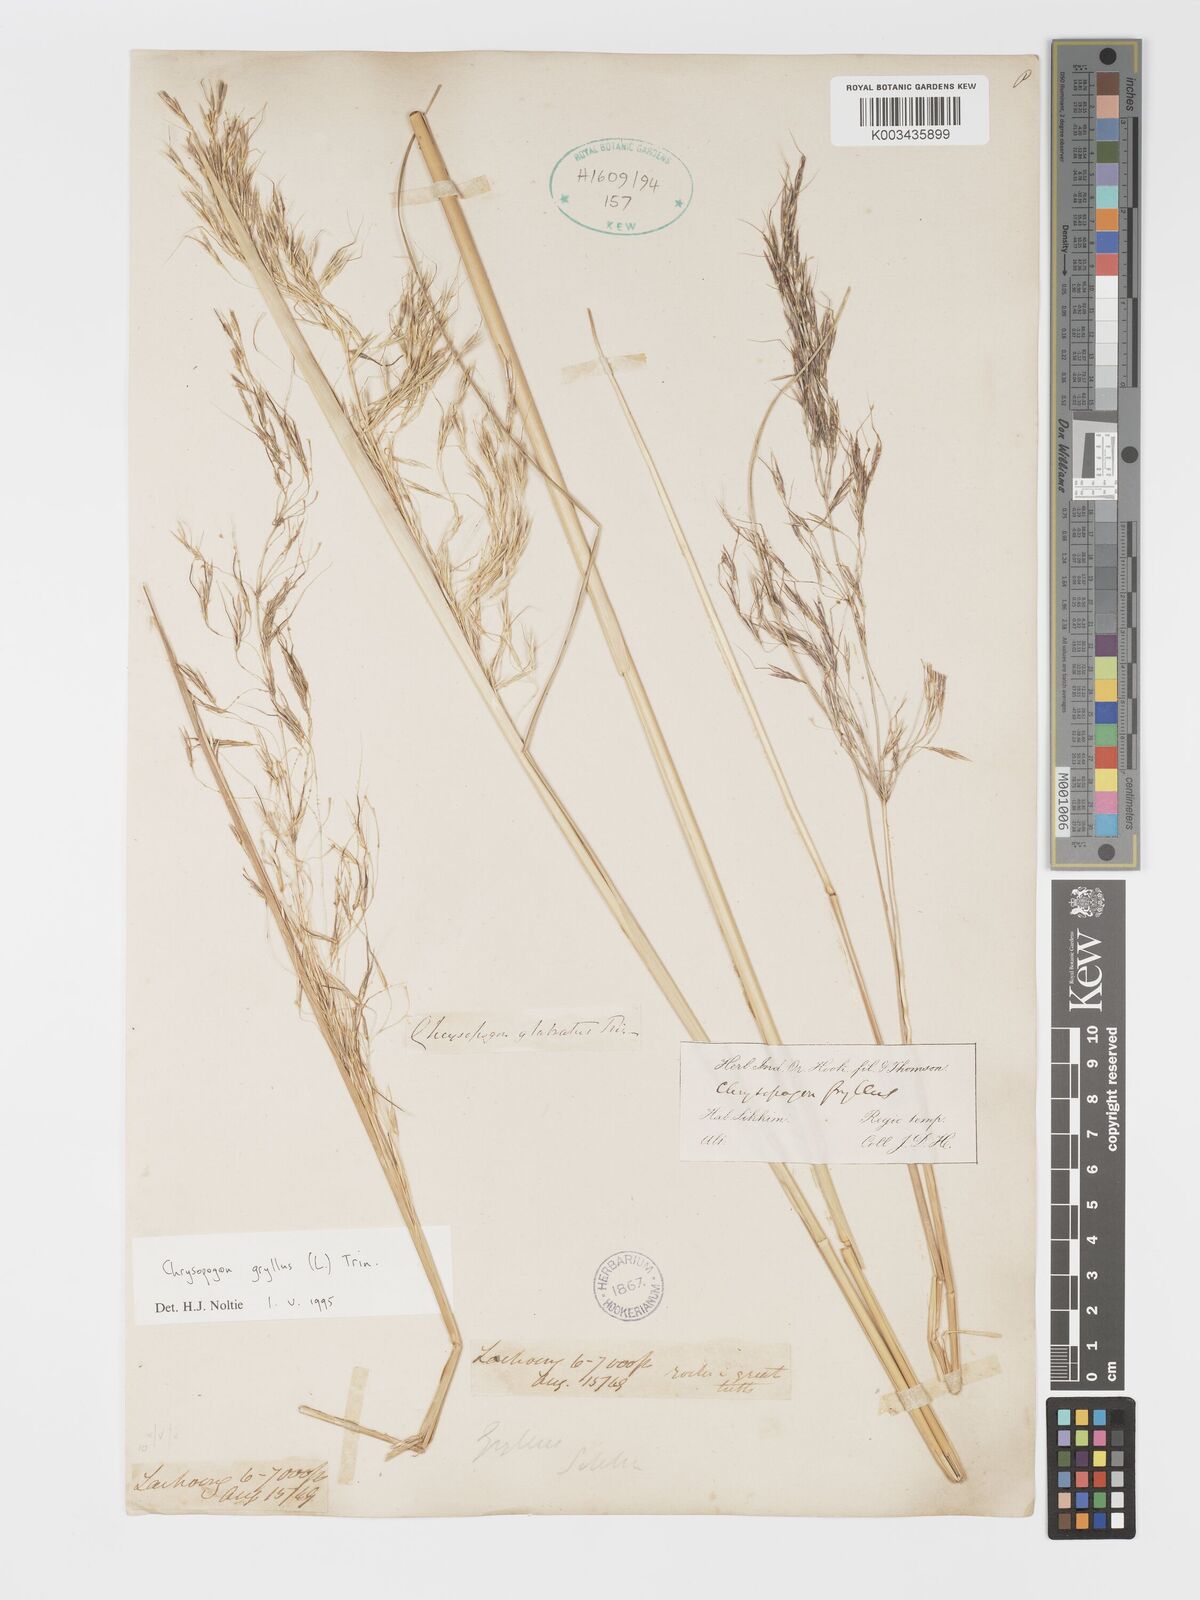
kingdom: Plantae
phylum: Tracheophyta
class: Liliopsida
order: Poales
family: Poaceae
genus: Chrysopogon
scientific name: Chrysopogon gryllus
